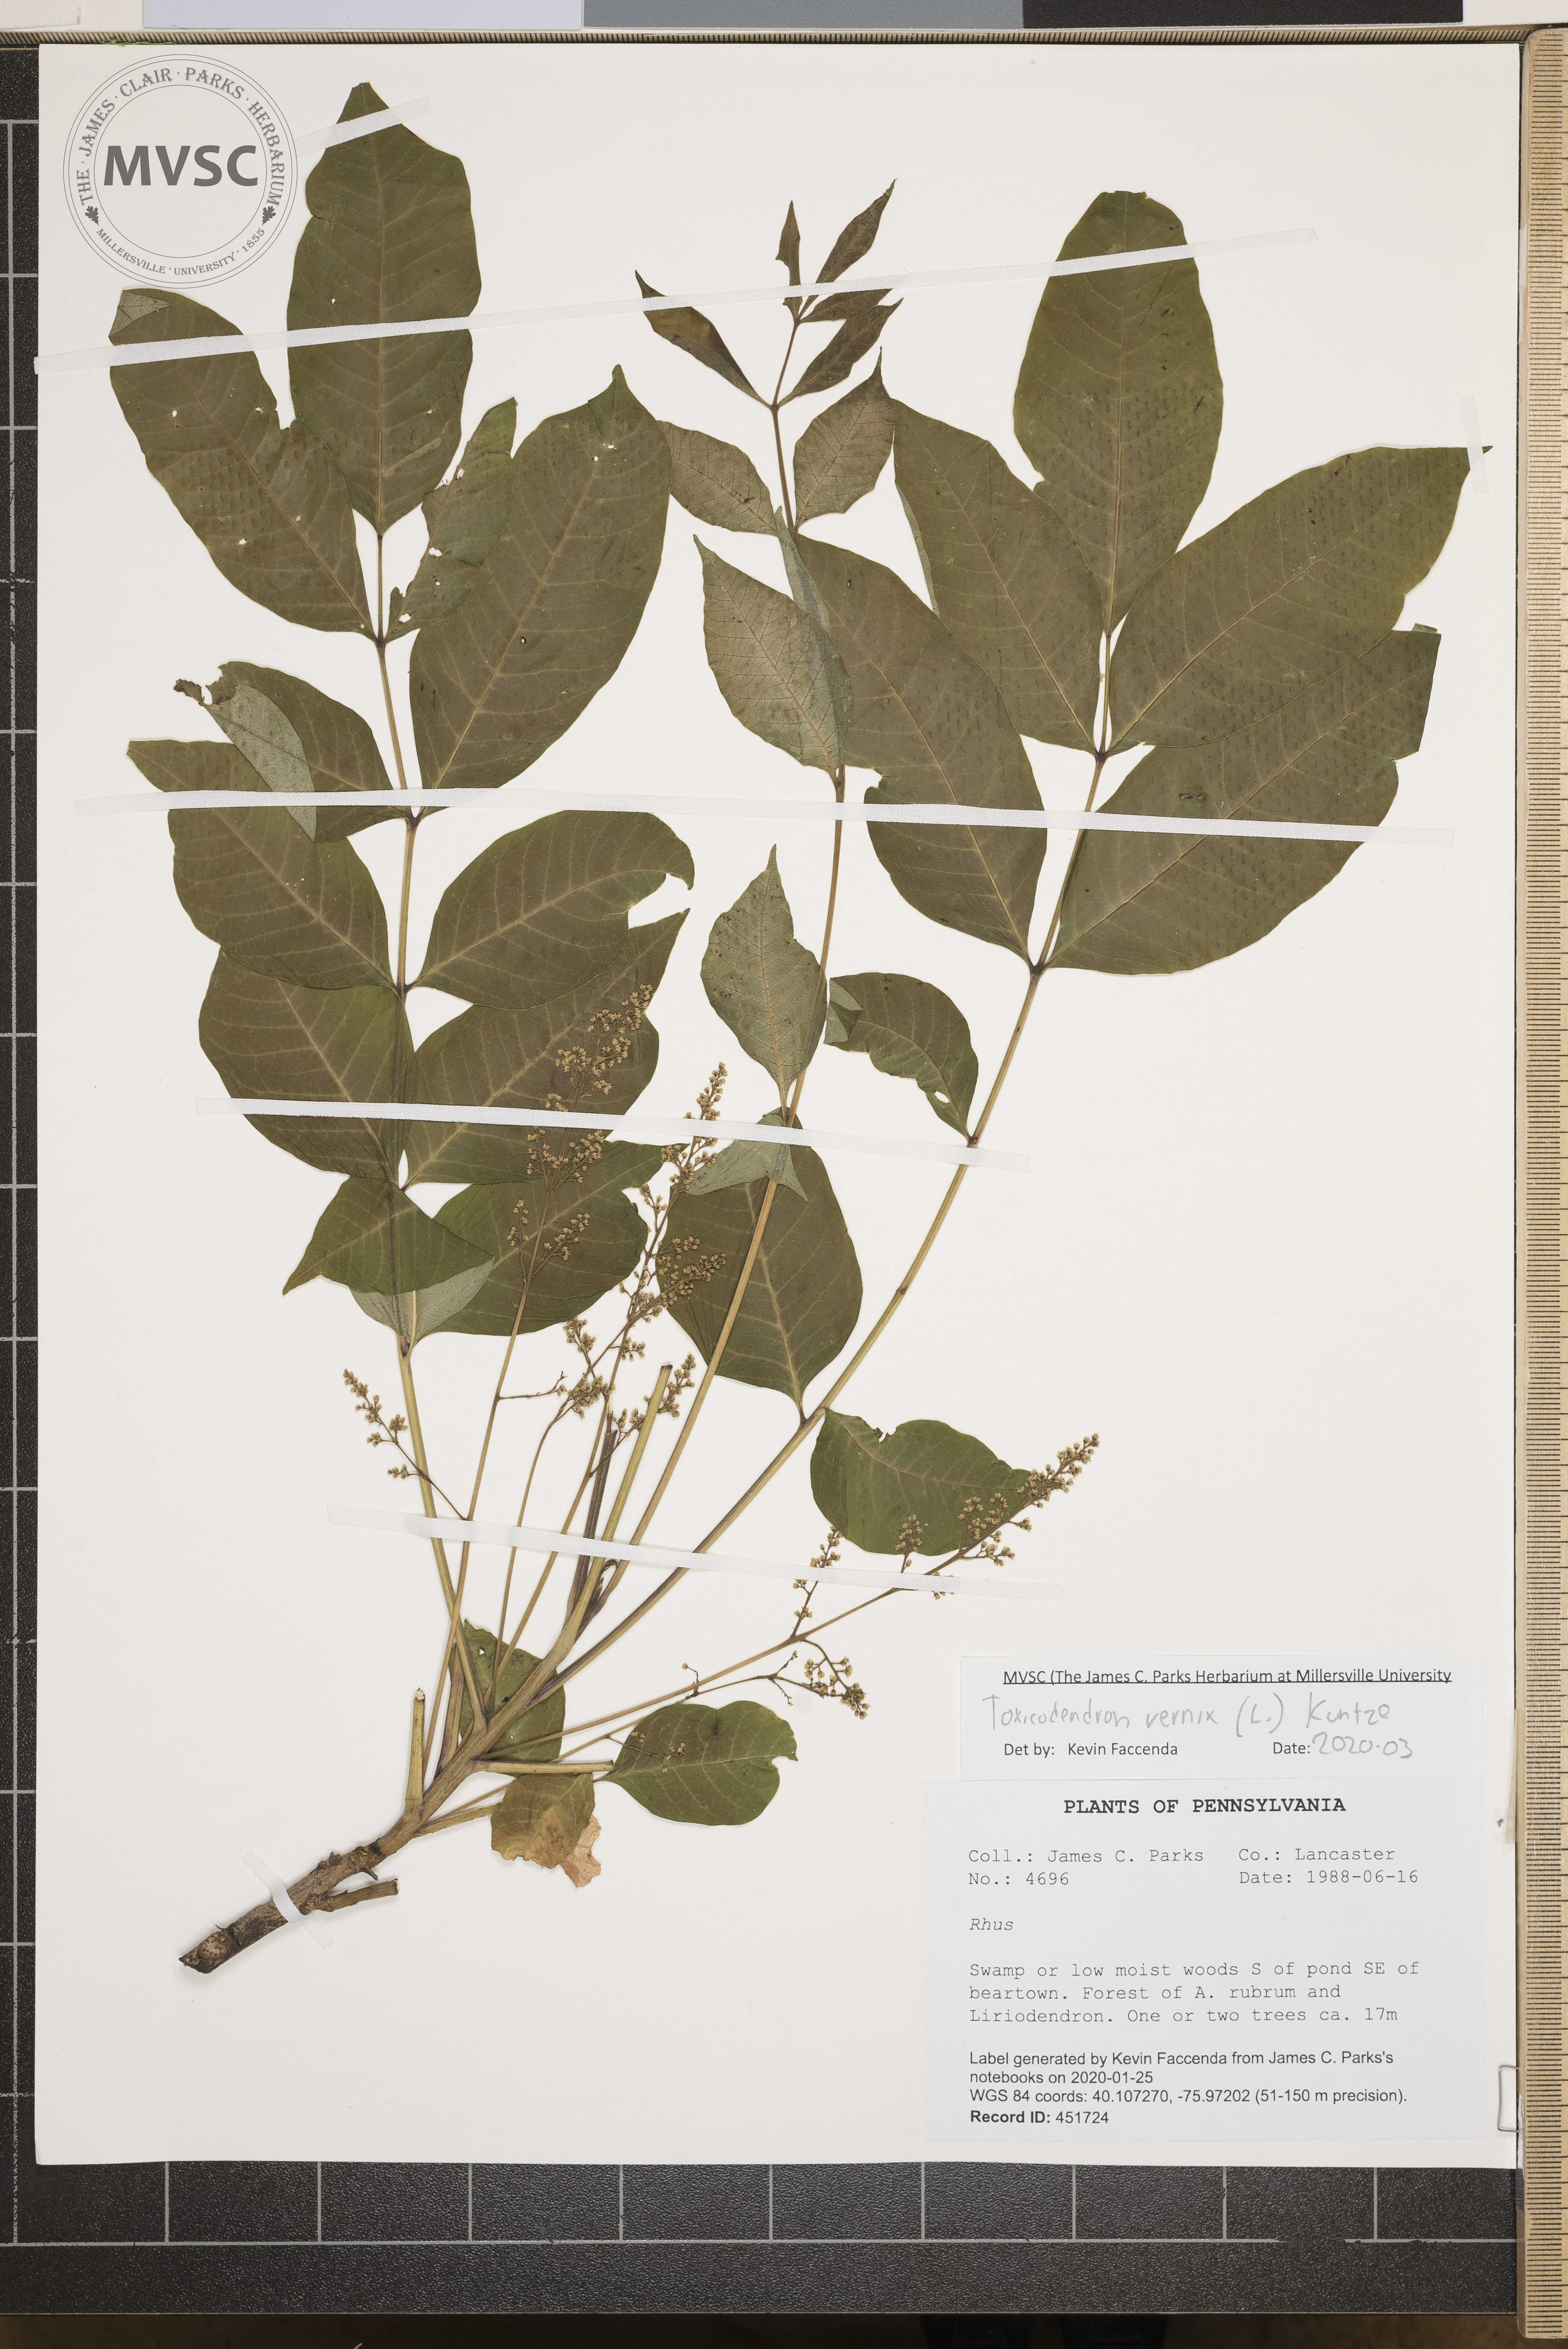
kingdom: Plantae
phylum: Tracheophyta
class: Magnoliopsida
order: Sapindales
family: Anacardiaceae
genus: Toxicodendron
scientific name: Toxicodendron vernix
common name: Poison sumac
